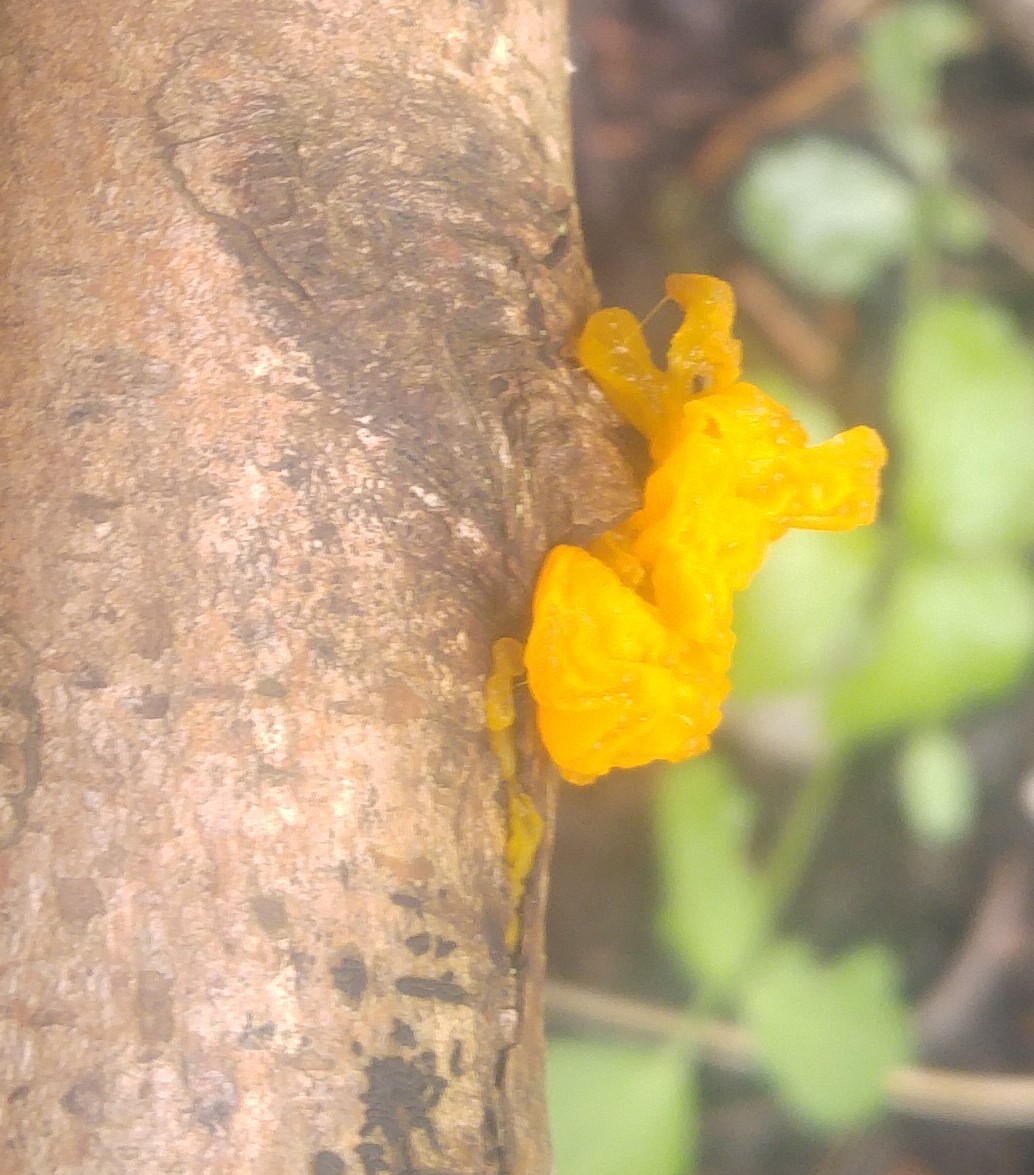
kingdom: Fungi
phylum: Basidiomycota
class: Tremellomycetes
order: Tremellales
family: Tremellaceae
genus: Tremella
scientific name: Tremella mesenterica
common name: gul bævresvamp
